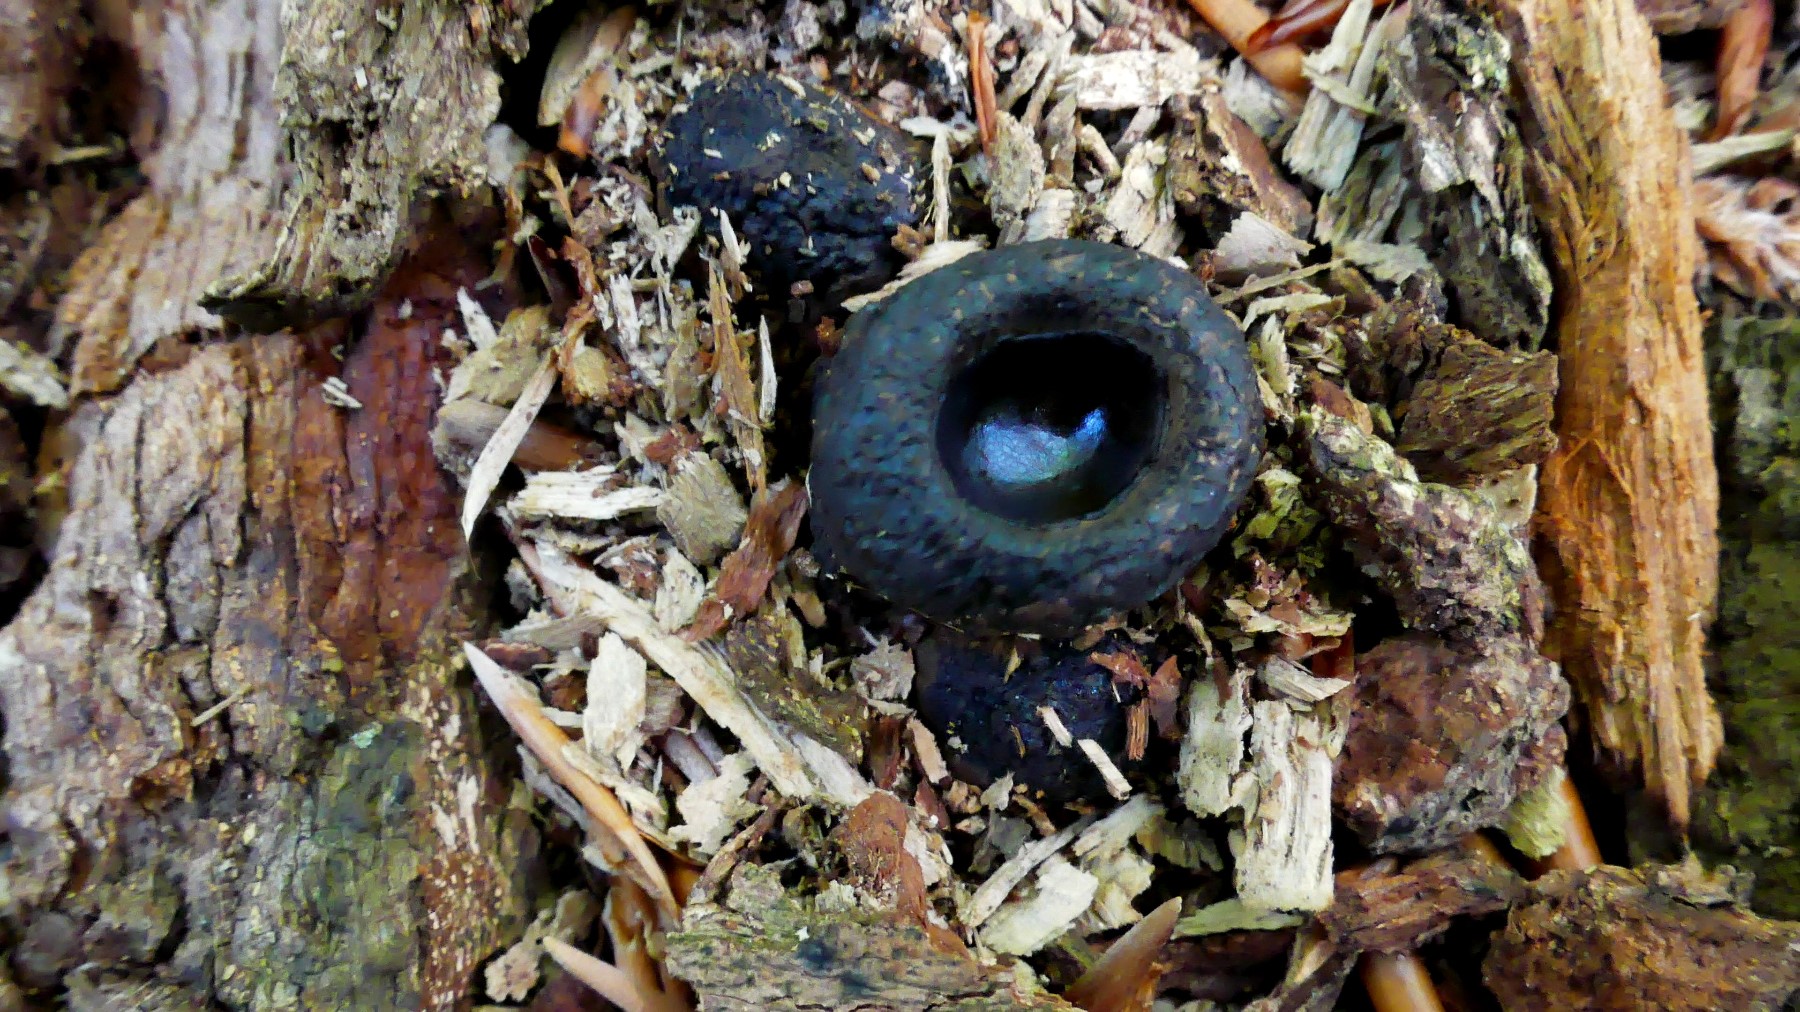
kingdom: Fungi
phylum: Ascomycota
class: Leotiomycetes
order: Phacidiales
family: Phacidiaceae
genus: Bulgaria
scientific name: Bulgaria inquinans
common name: afsmittende topsvamp
